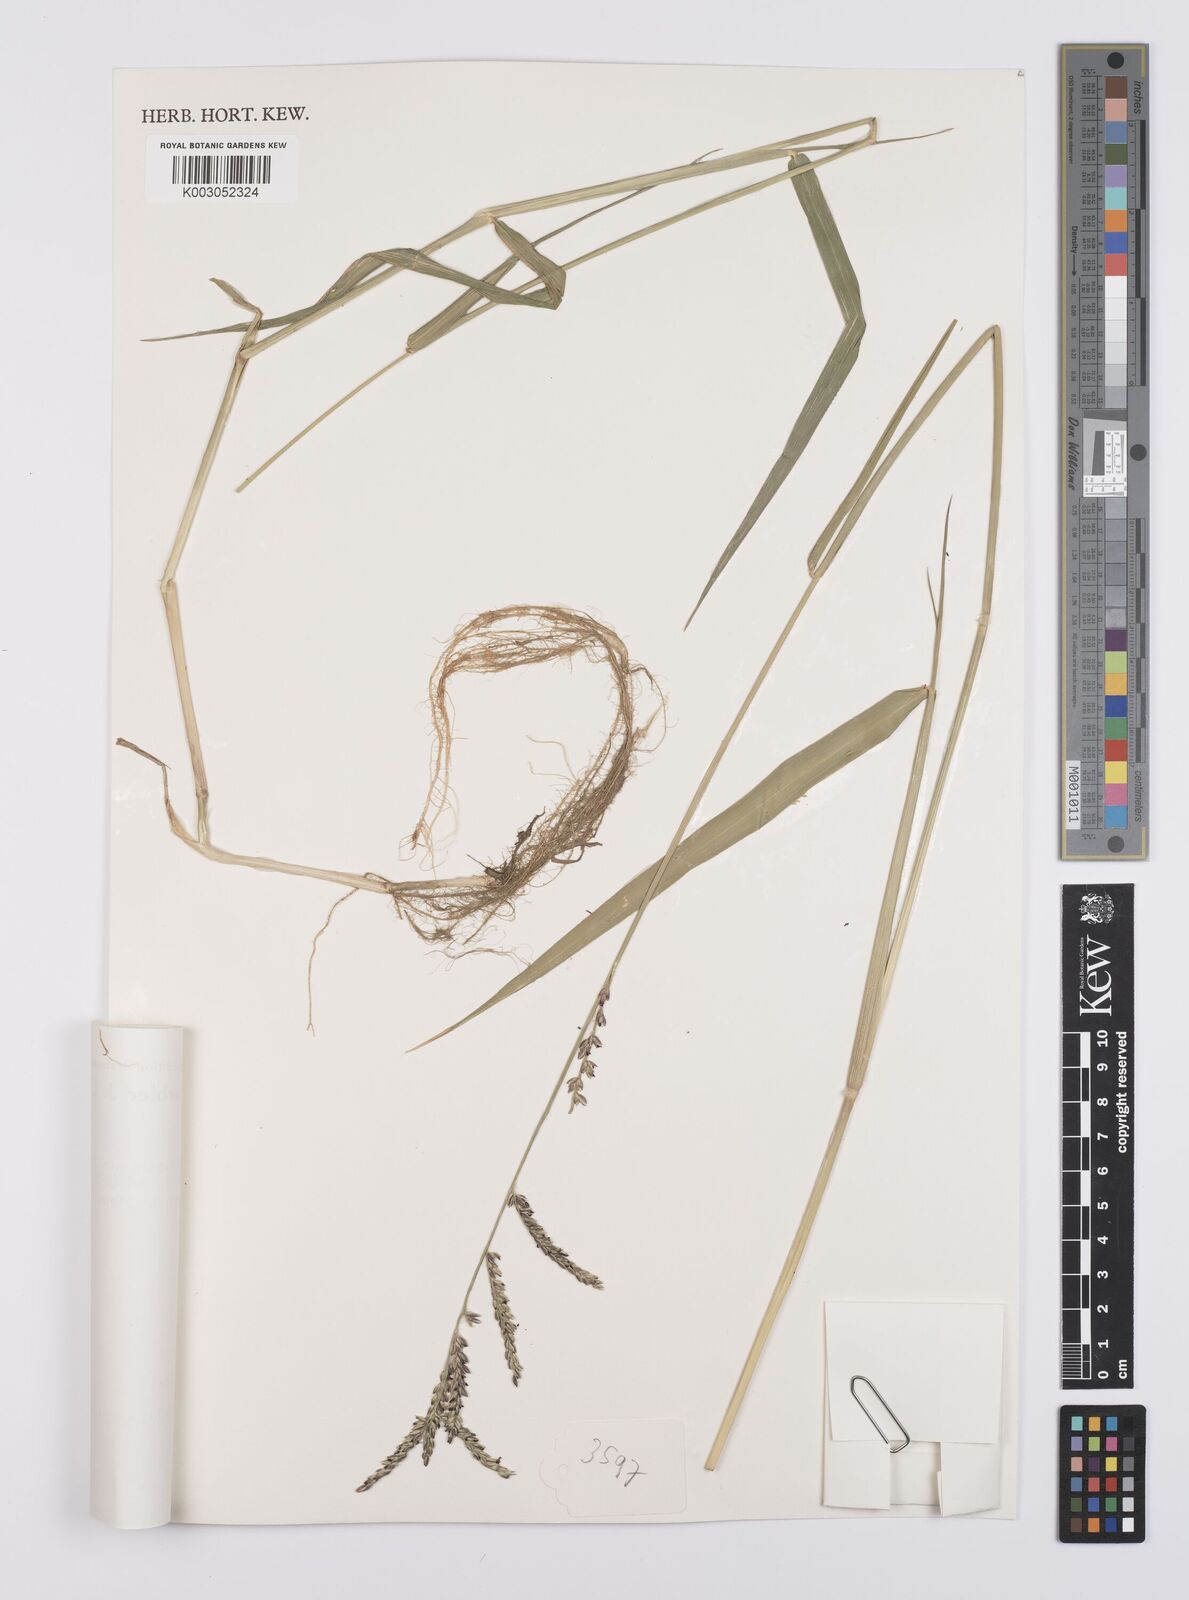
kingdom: Plantae
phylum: Tracheophyta
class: Liliopsida
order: Poales
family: Poaceae
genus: Urochloa
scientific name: Urochloa mutica
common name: Para grass
